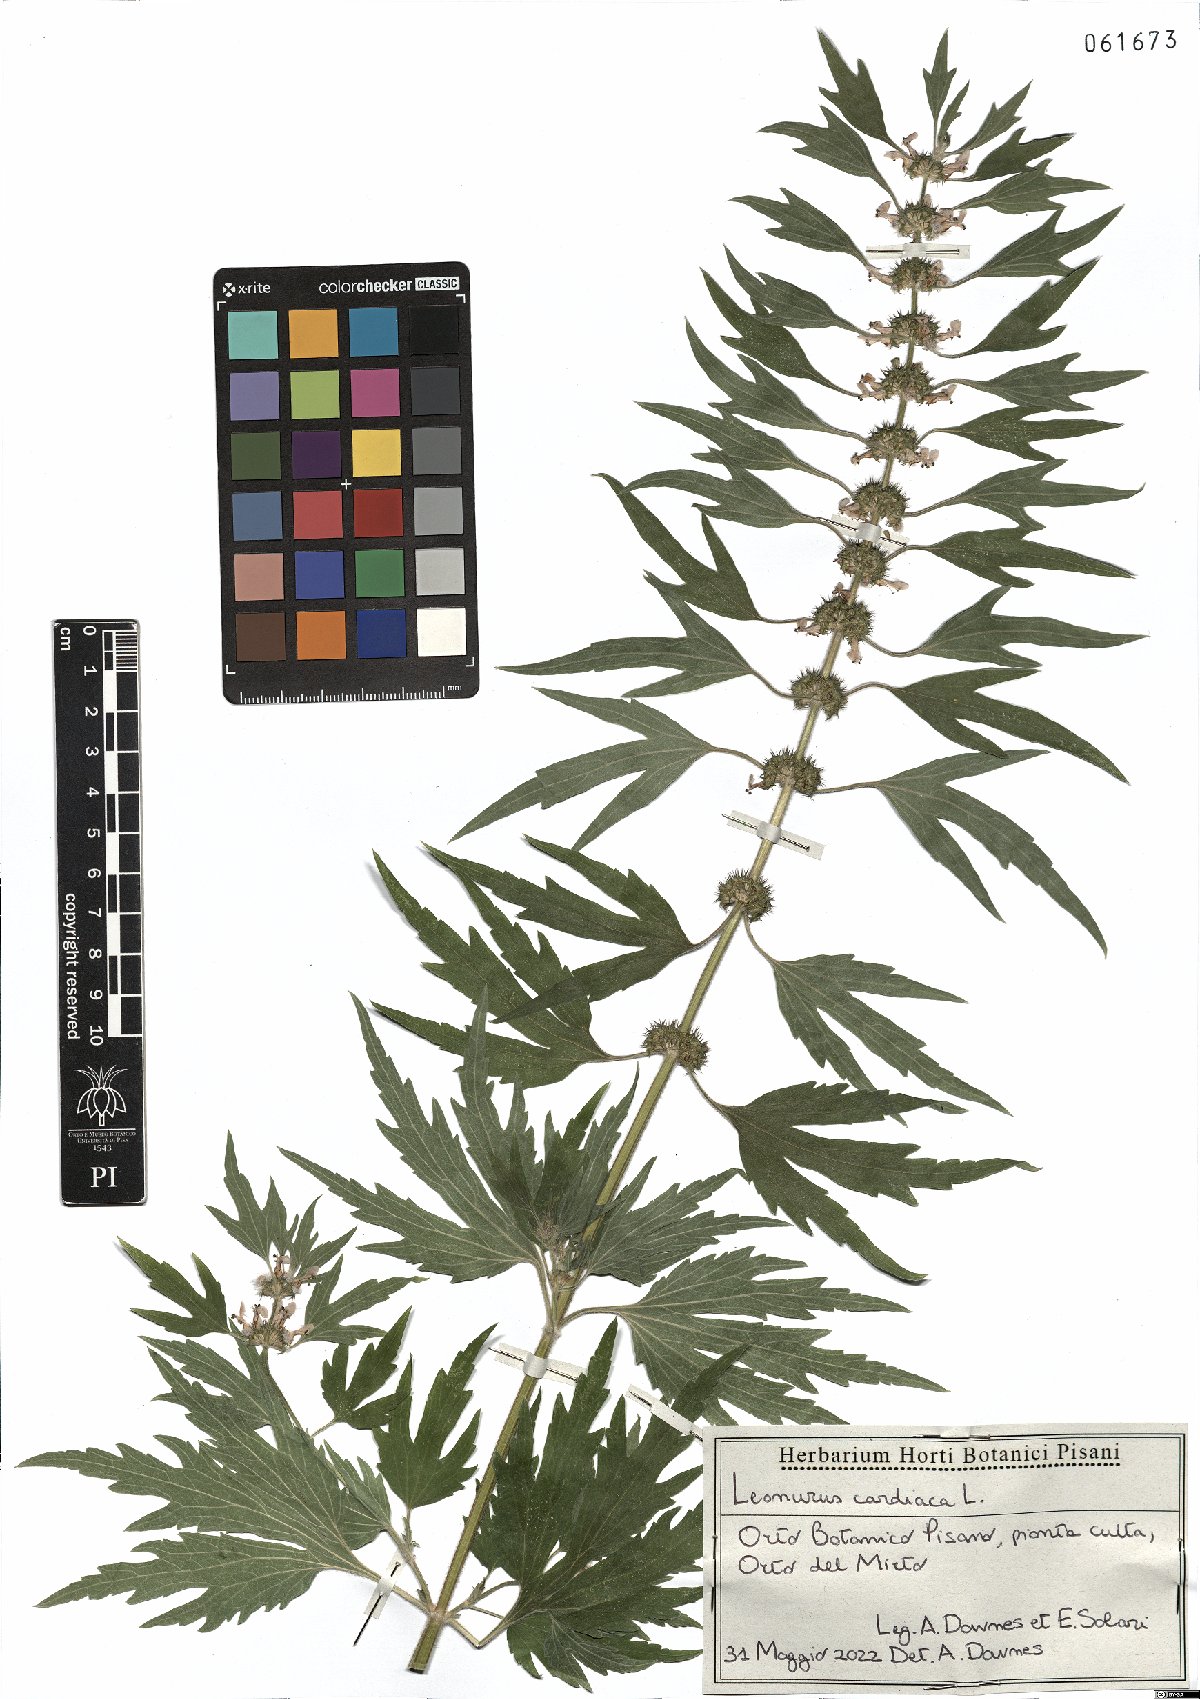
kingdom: Plantae
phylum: Tracheophyta
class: Magnoliopsida
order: Lamiales
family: Lamiaceae
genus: Leonurus
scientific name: Leonurus cardiaca
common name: Motherwort
